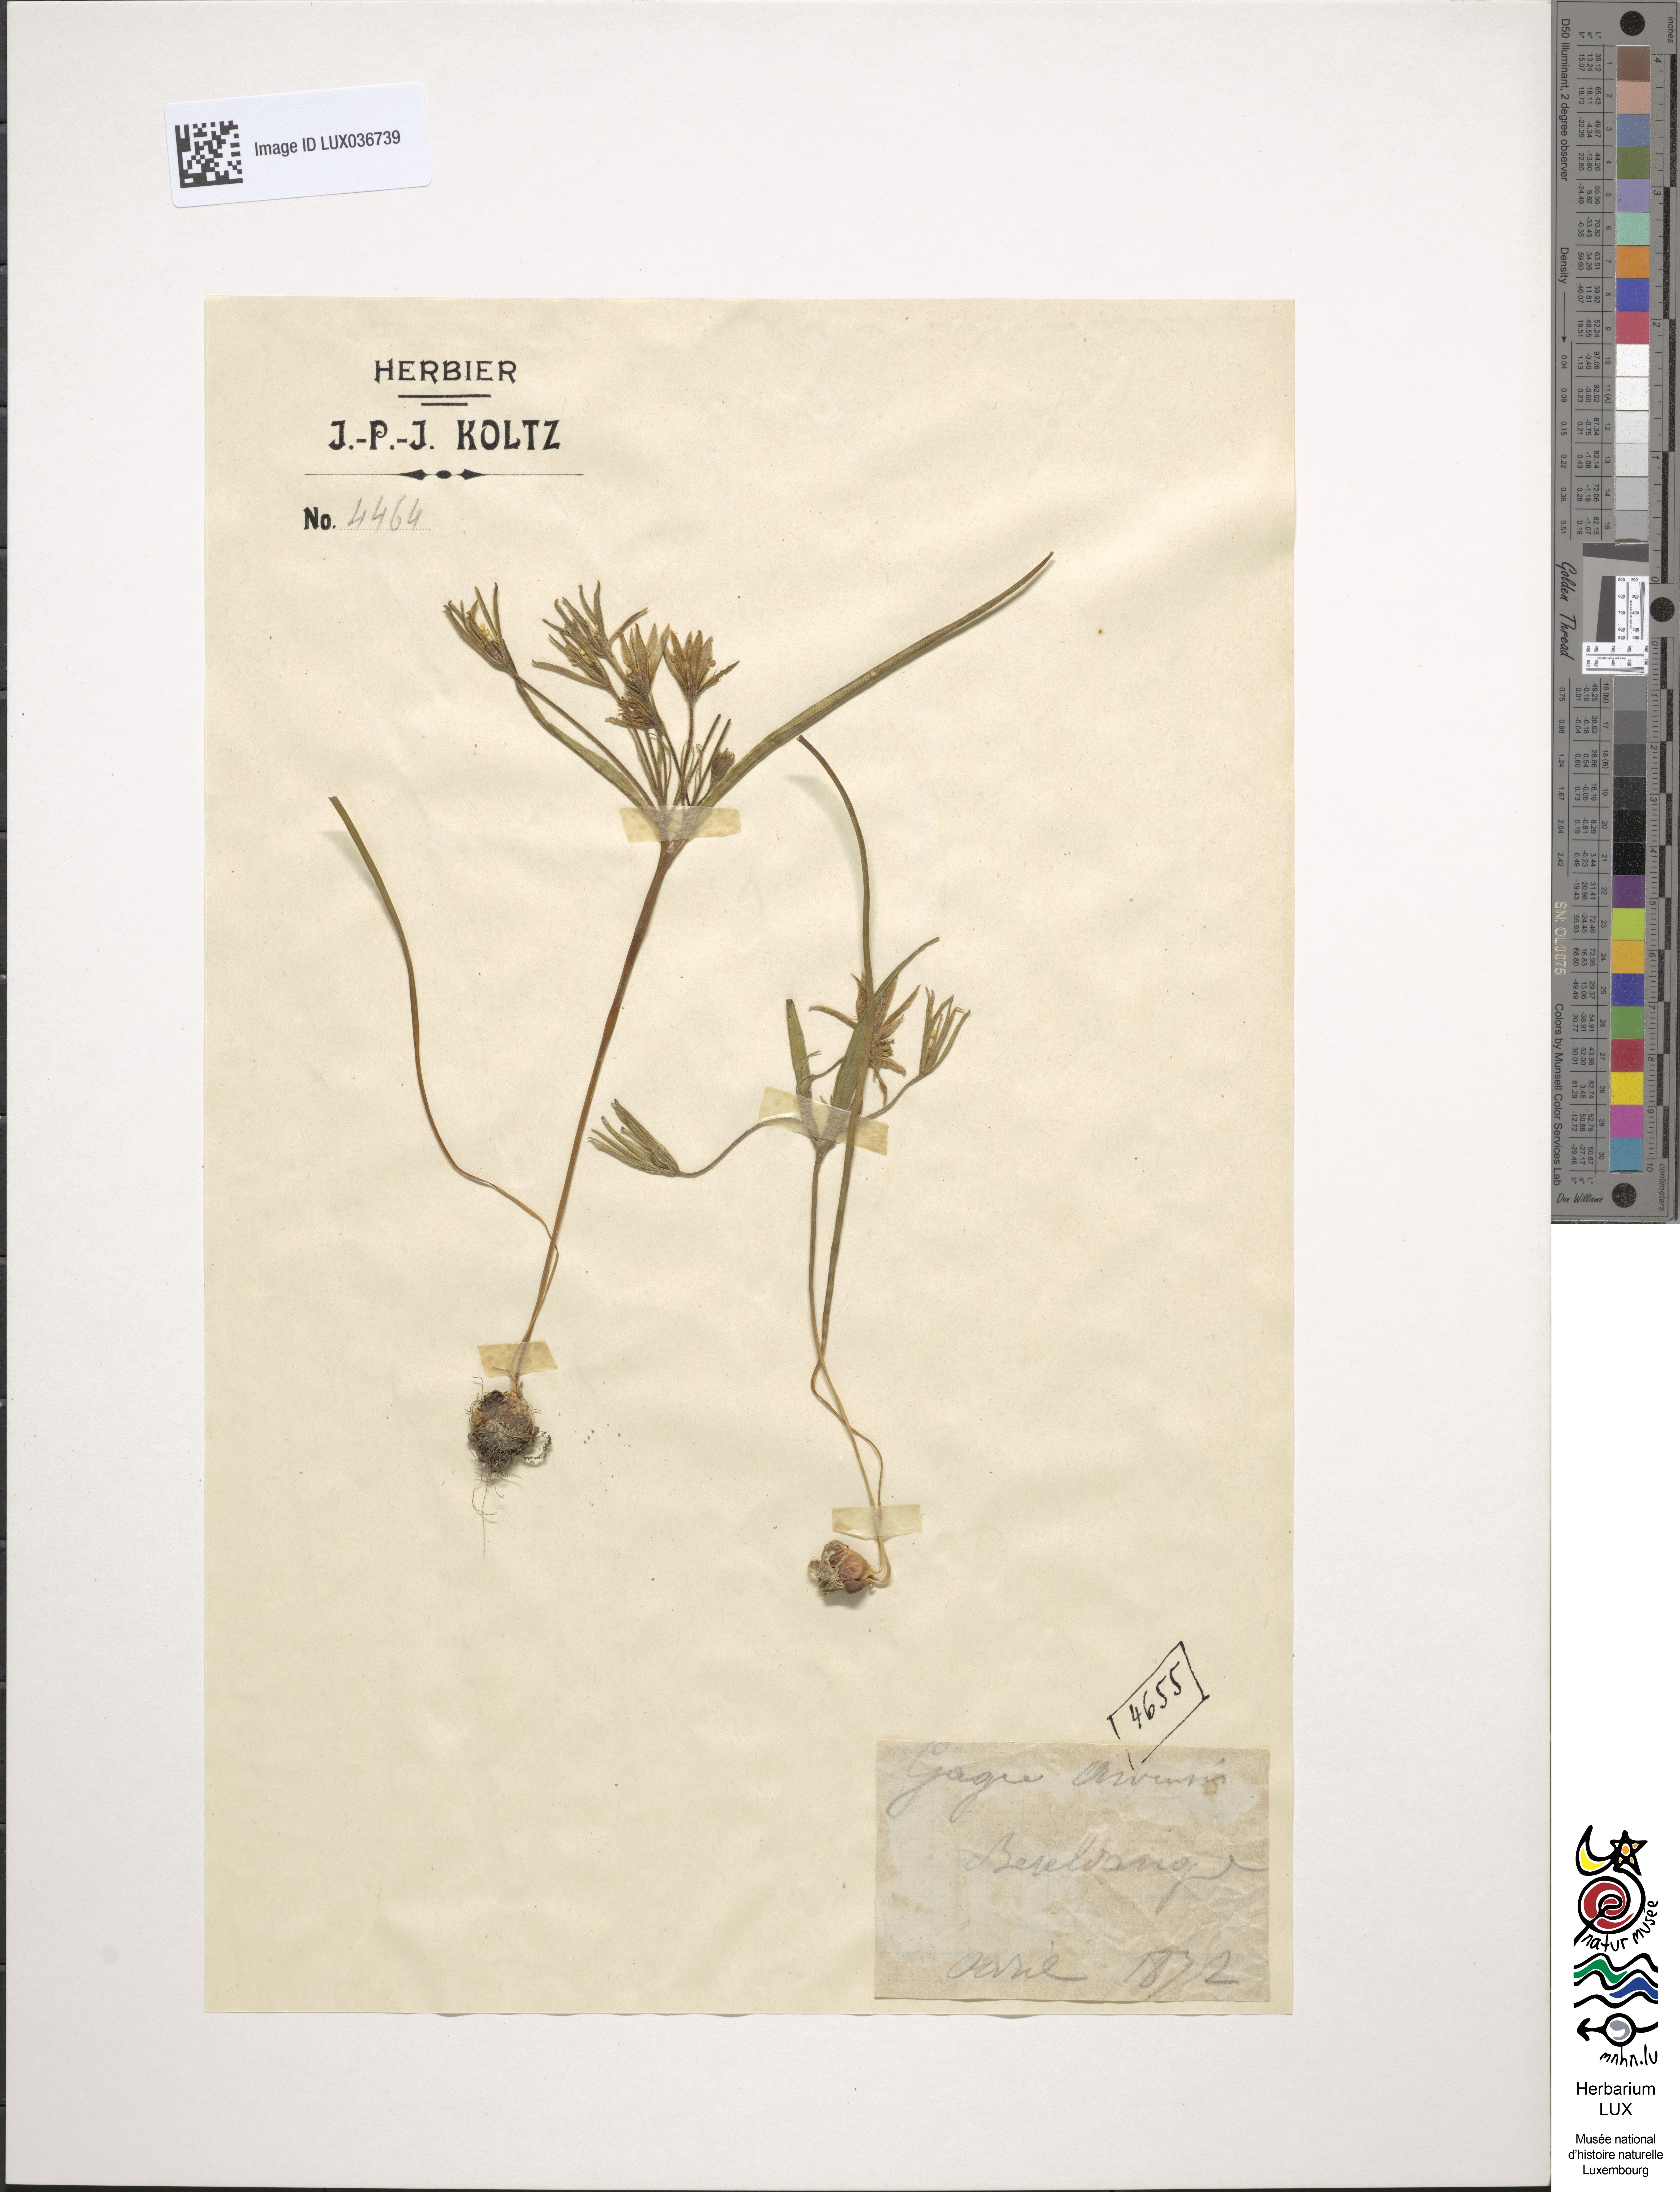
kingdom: Plantae
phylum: Tracheophyta
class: Liliopsida
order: Liliales
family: Liliaceae
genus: Gagea
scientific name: Gagea minima
